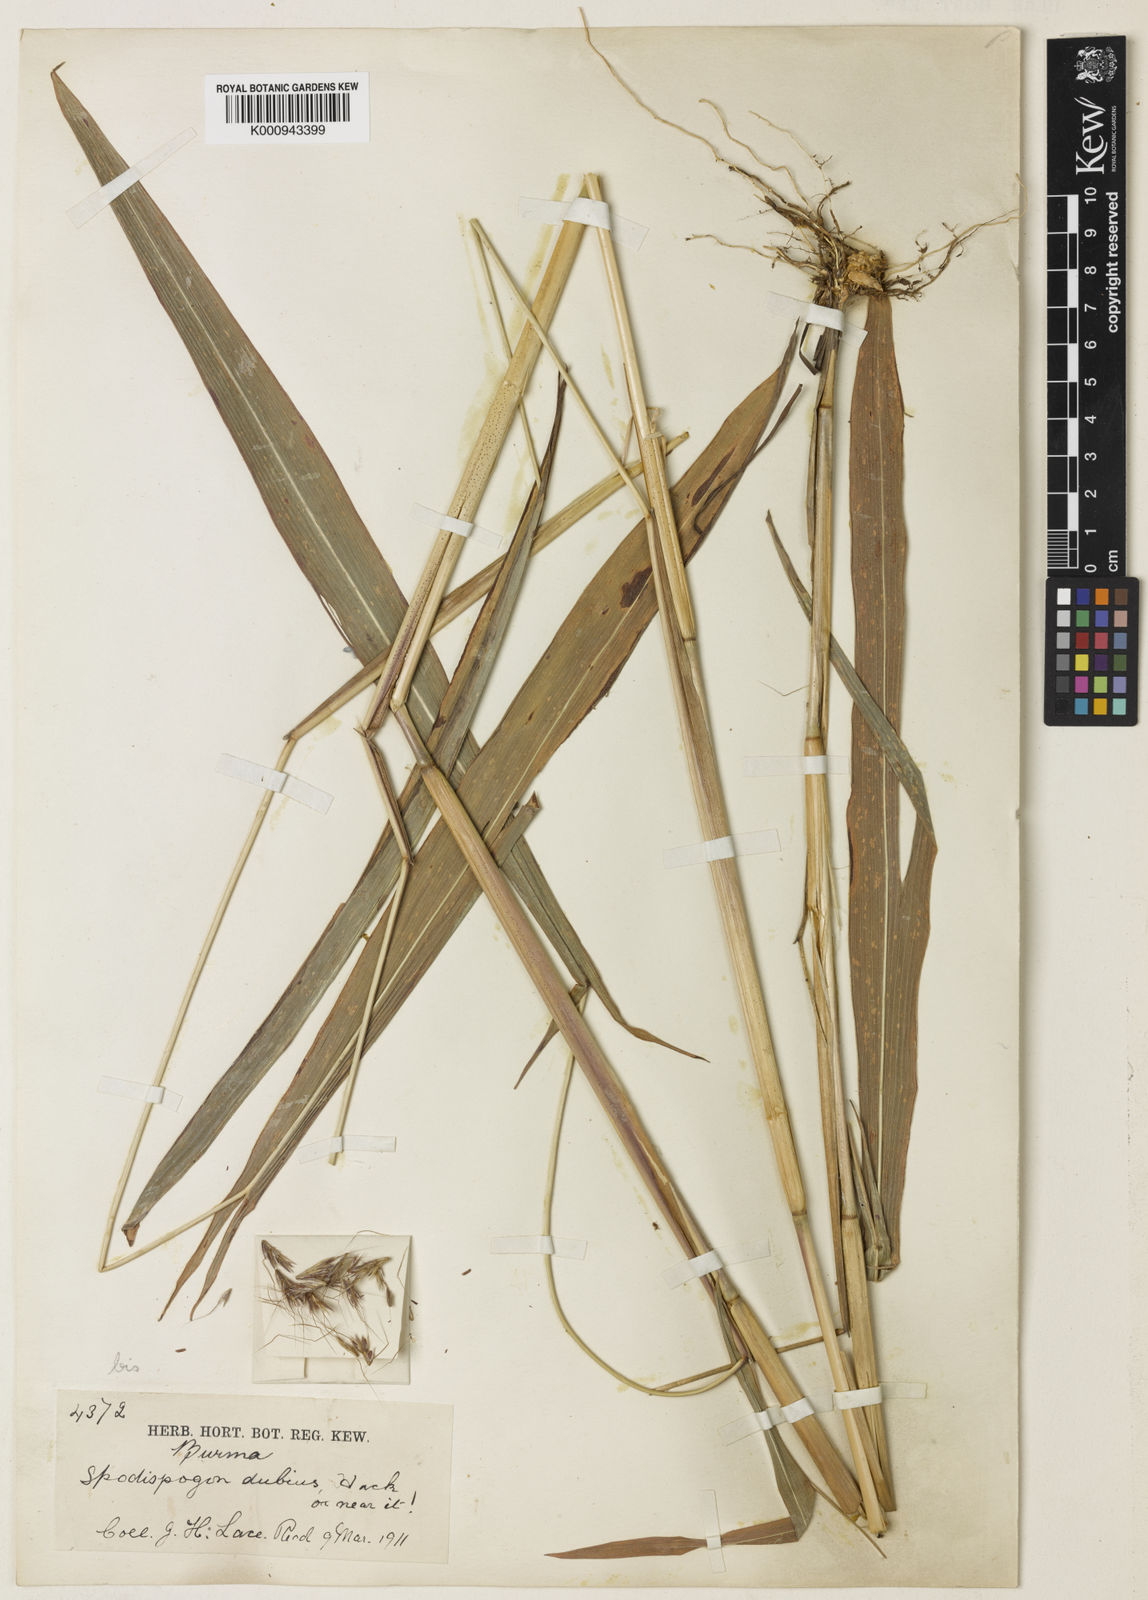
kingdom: Plantae
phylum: Tracheophyta
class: Liliopsida
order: Poales
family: Poaceae
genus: Spodiopogon
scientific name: Spodiopogon jainii
